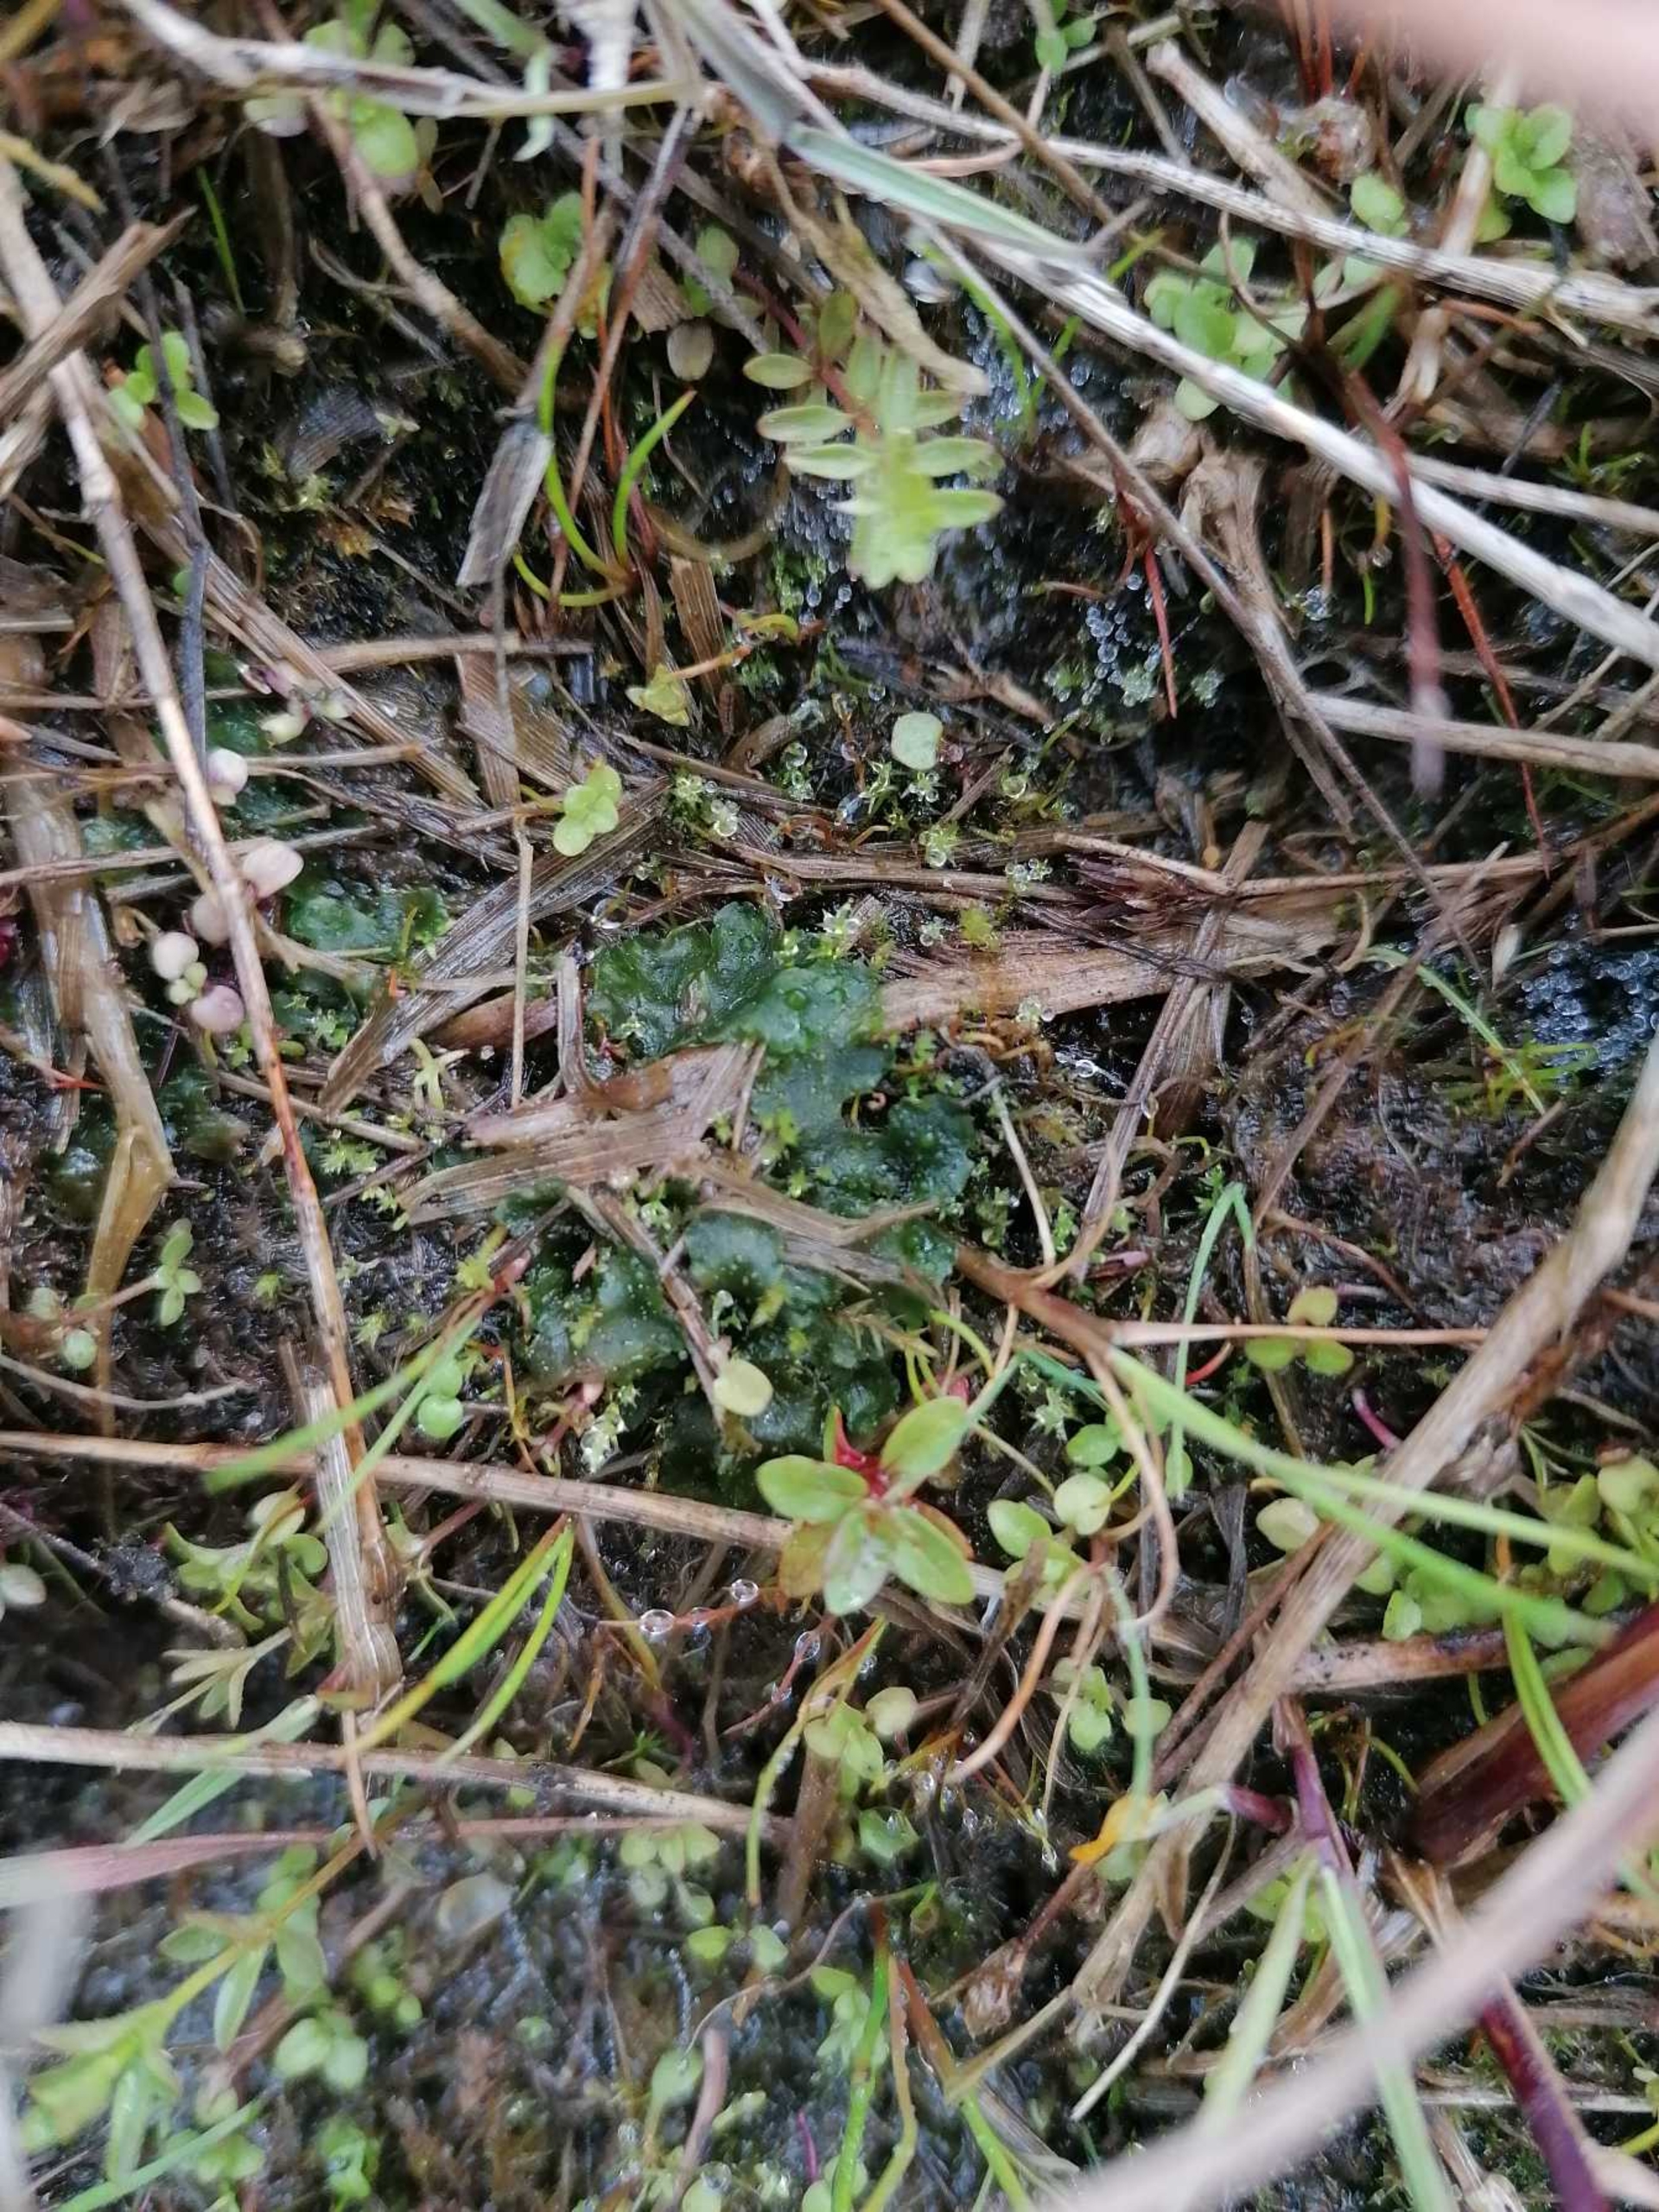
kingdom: Plantae
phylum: Anthocerotophyta
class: Anthocerotopsida
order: Notothyladales
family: Notothyladaceae
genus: Phaeoceros
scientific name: Phaeoceros carolinianus
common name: Glat hornløv
